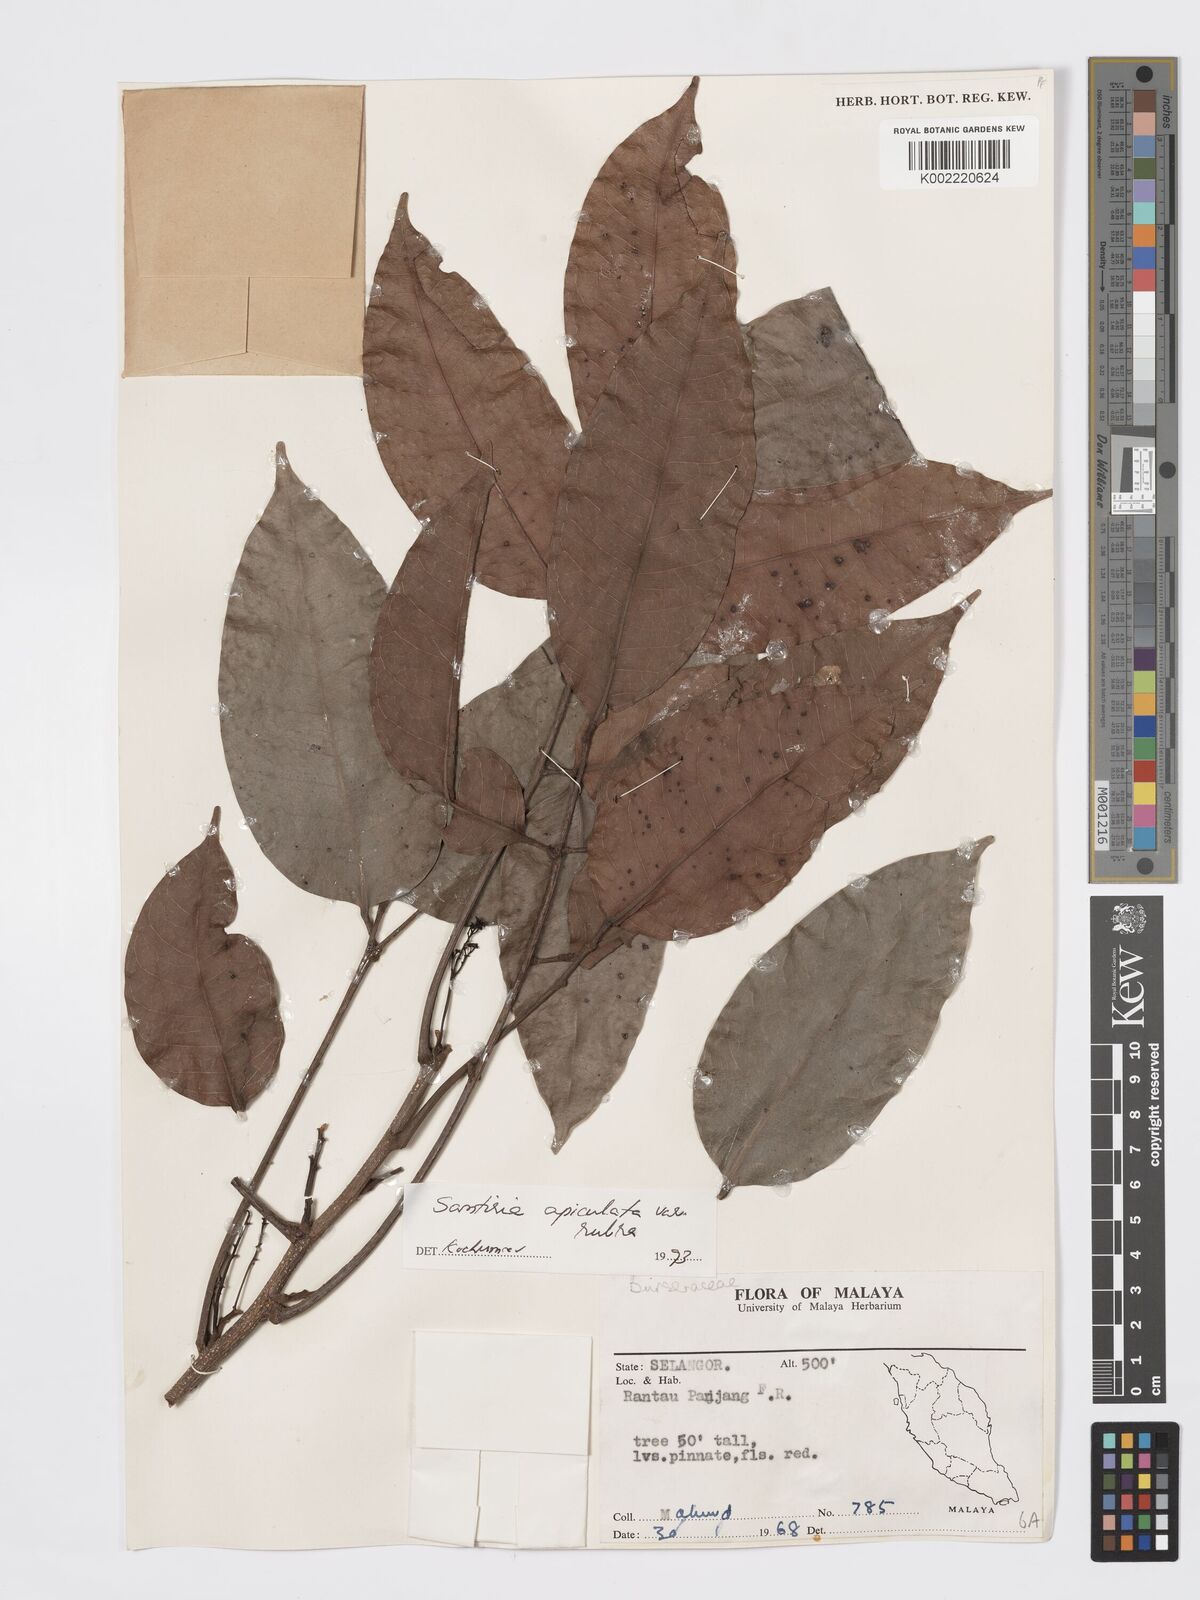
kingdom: Plantae
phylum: Tracheophyta
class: Magnoliopsida
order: Sapindales
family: Burseraceae
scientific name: Burseraceae
